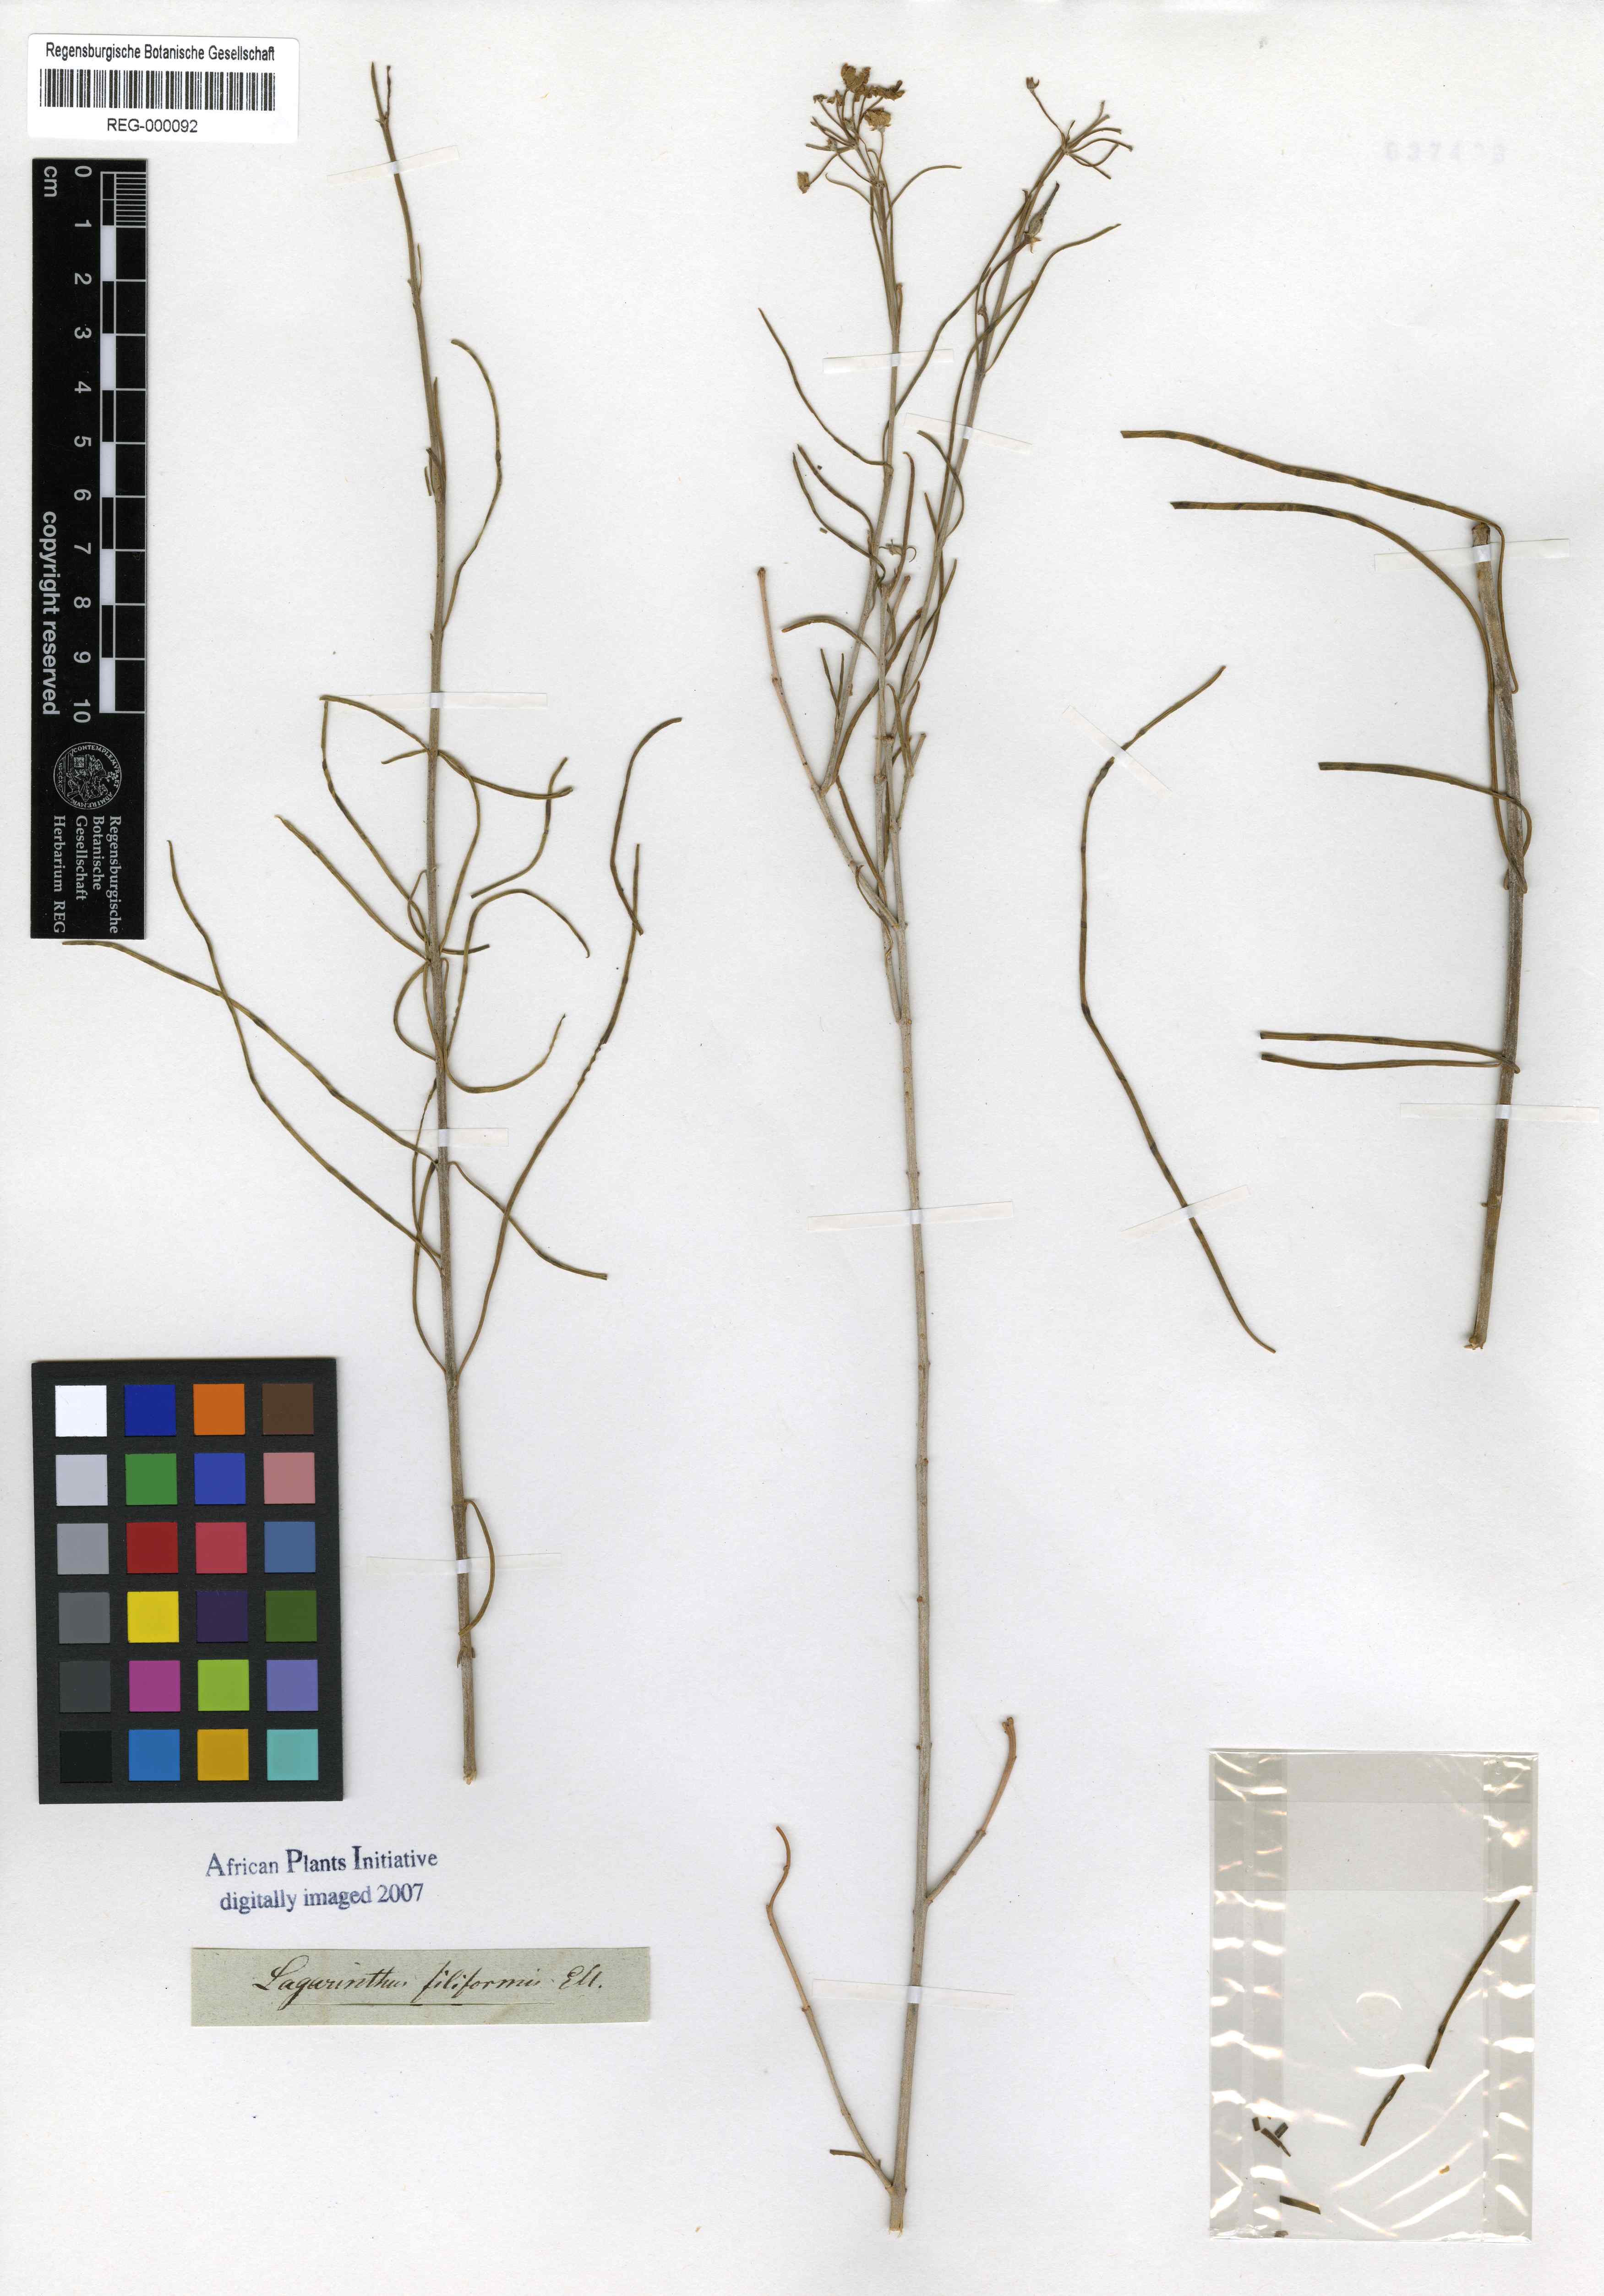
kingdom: Plantae
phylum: Tracheophyta
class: Magnoliopsida
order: Gentianales
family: Apocynaceae
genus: Gomphocarpus
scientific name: Gomphocarpus filiformis
